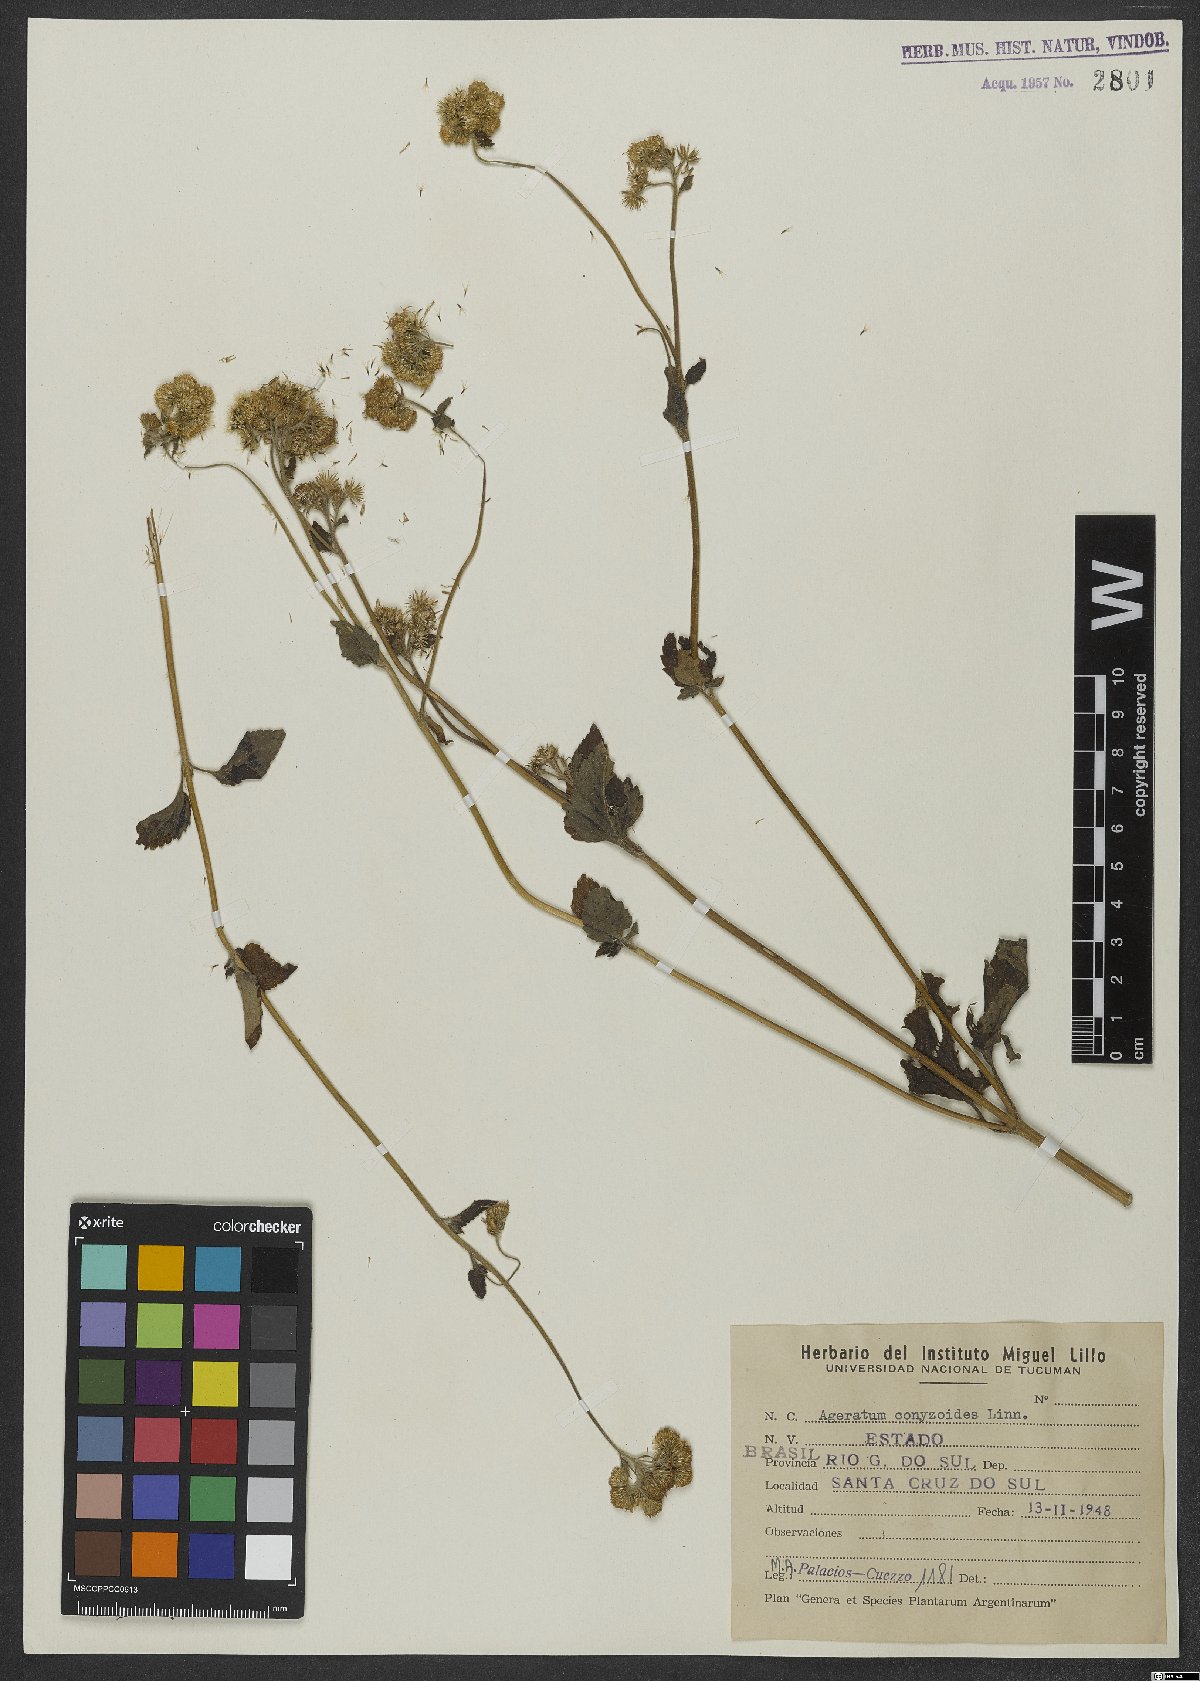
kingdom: Plantae
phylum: Tracheophyta
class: Magnoliopsida
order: Asterales
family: Asteraceae
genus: Ageratum
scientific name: Ageratum conyzoides
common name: Tropical whiteweed
